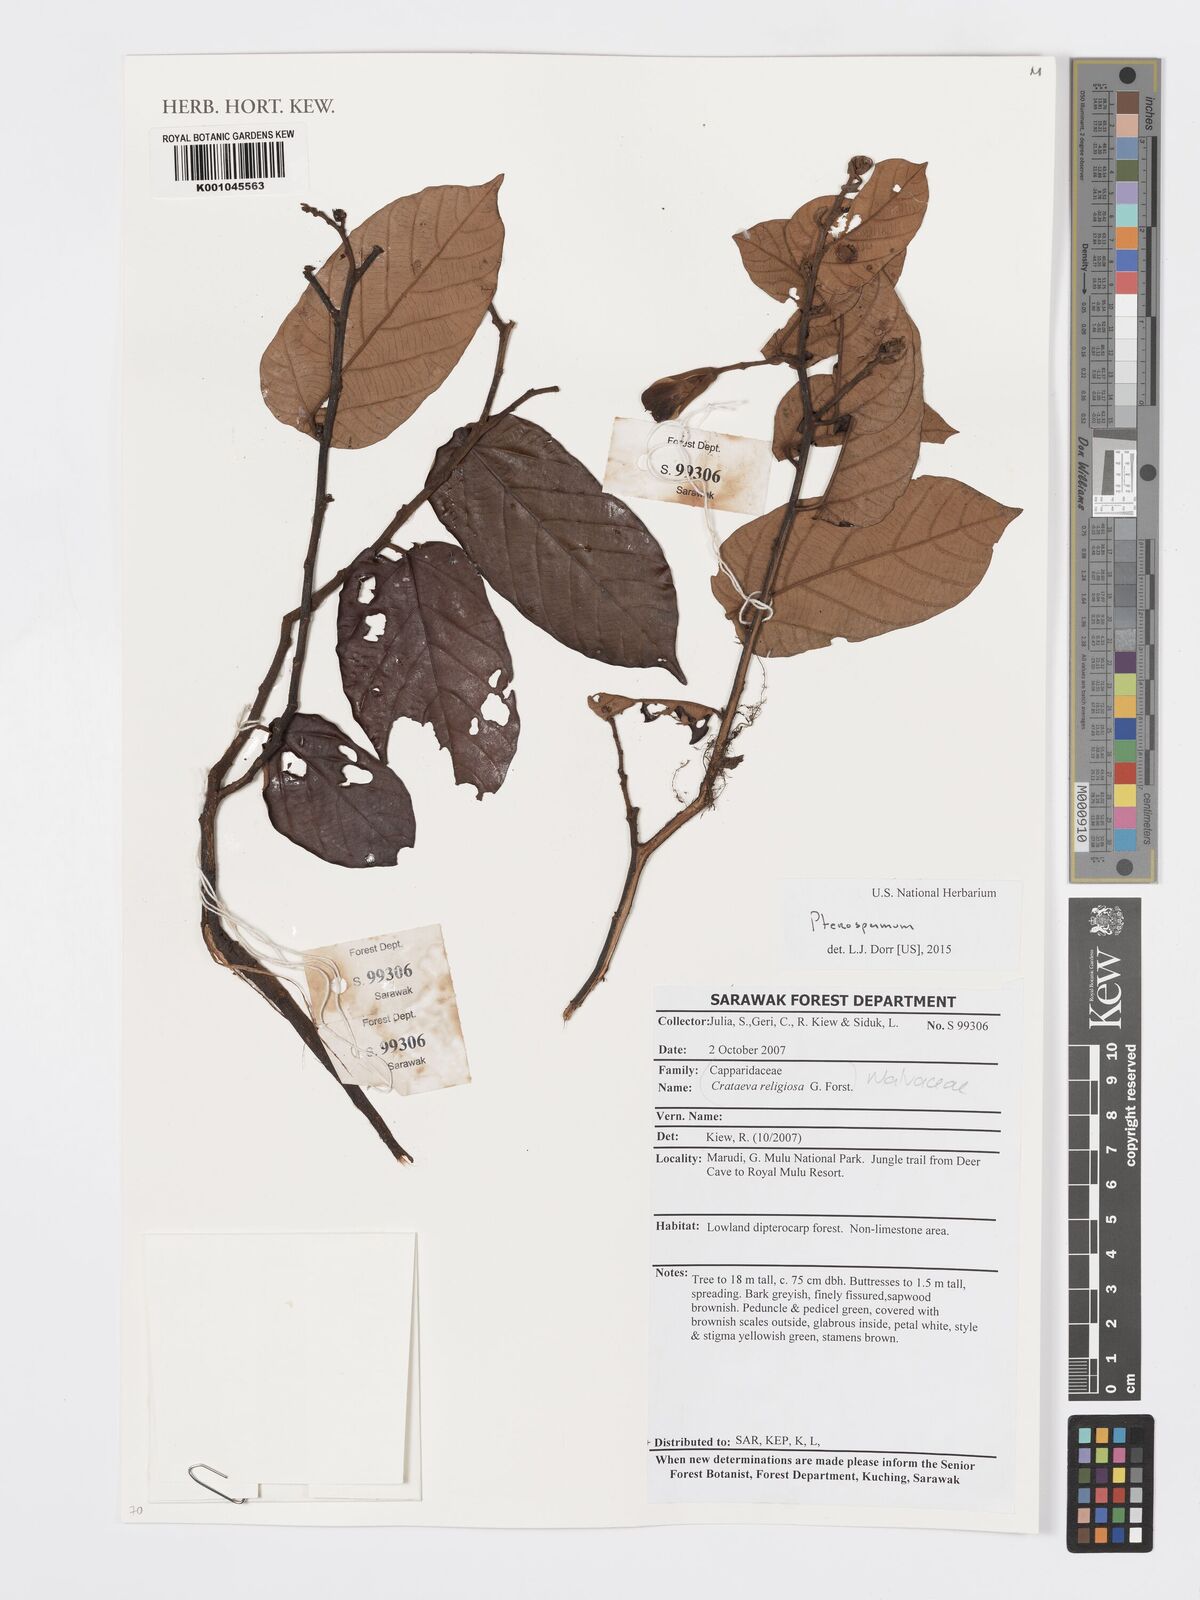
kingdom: Plantae
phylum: Tracheophyta
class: Magnoliopsida
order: Malvales
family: Malvaceae
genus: Pterospermum
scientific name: Pterospermum
